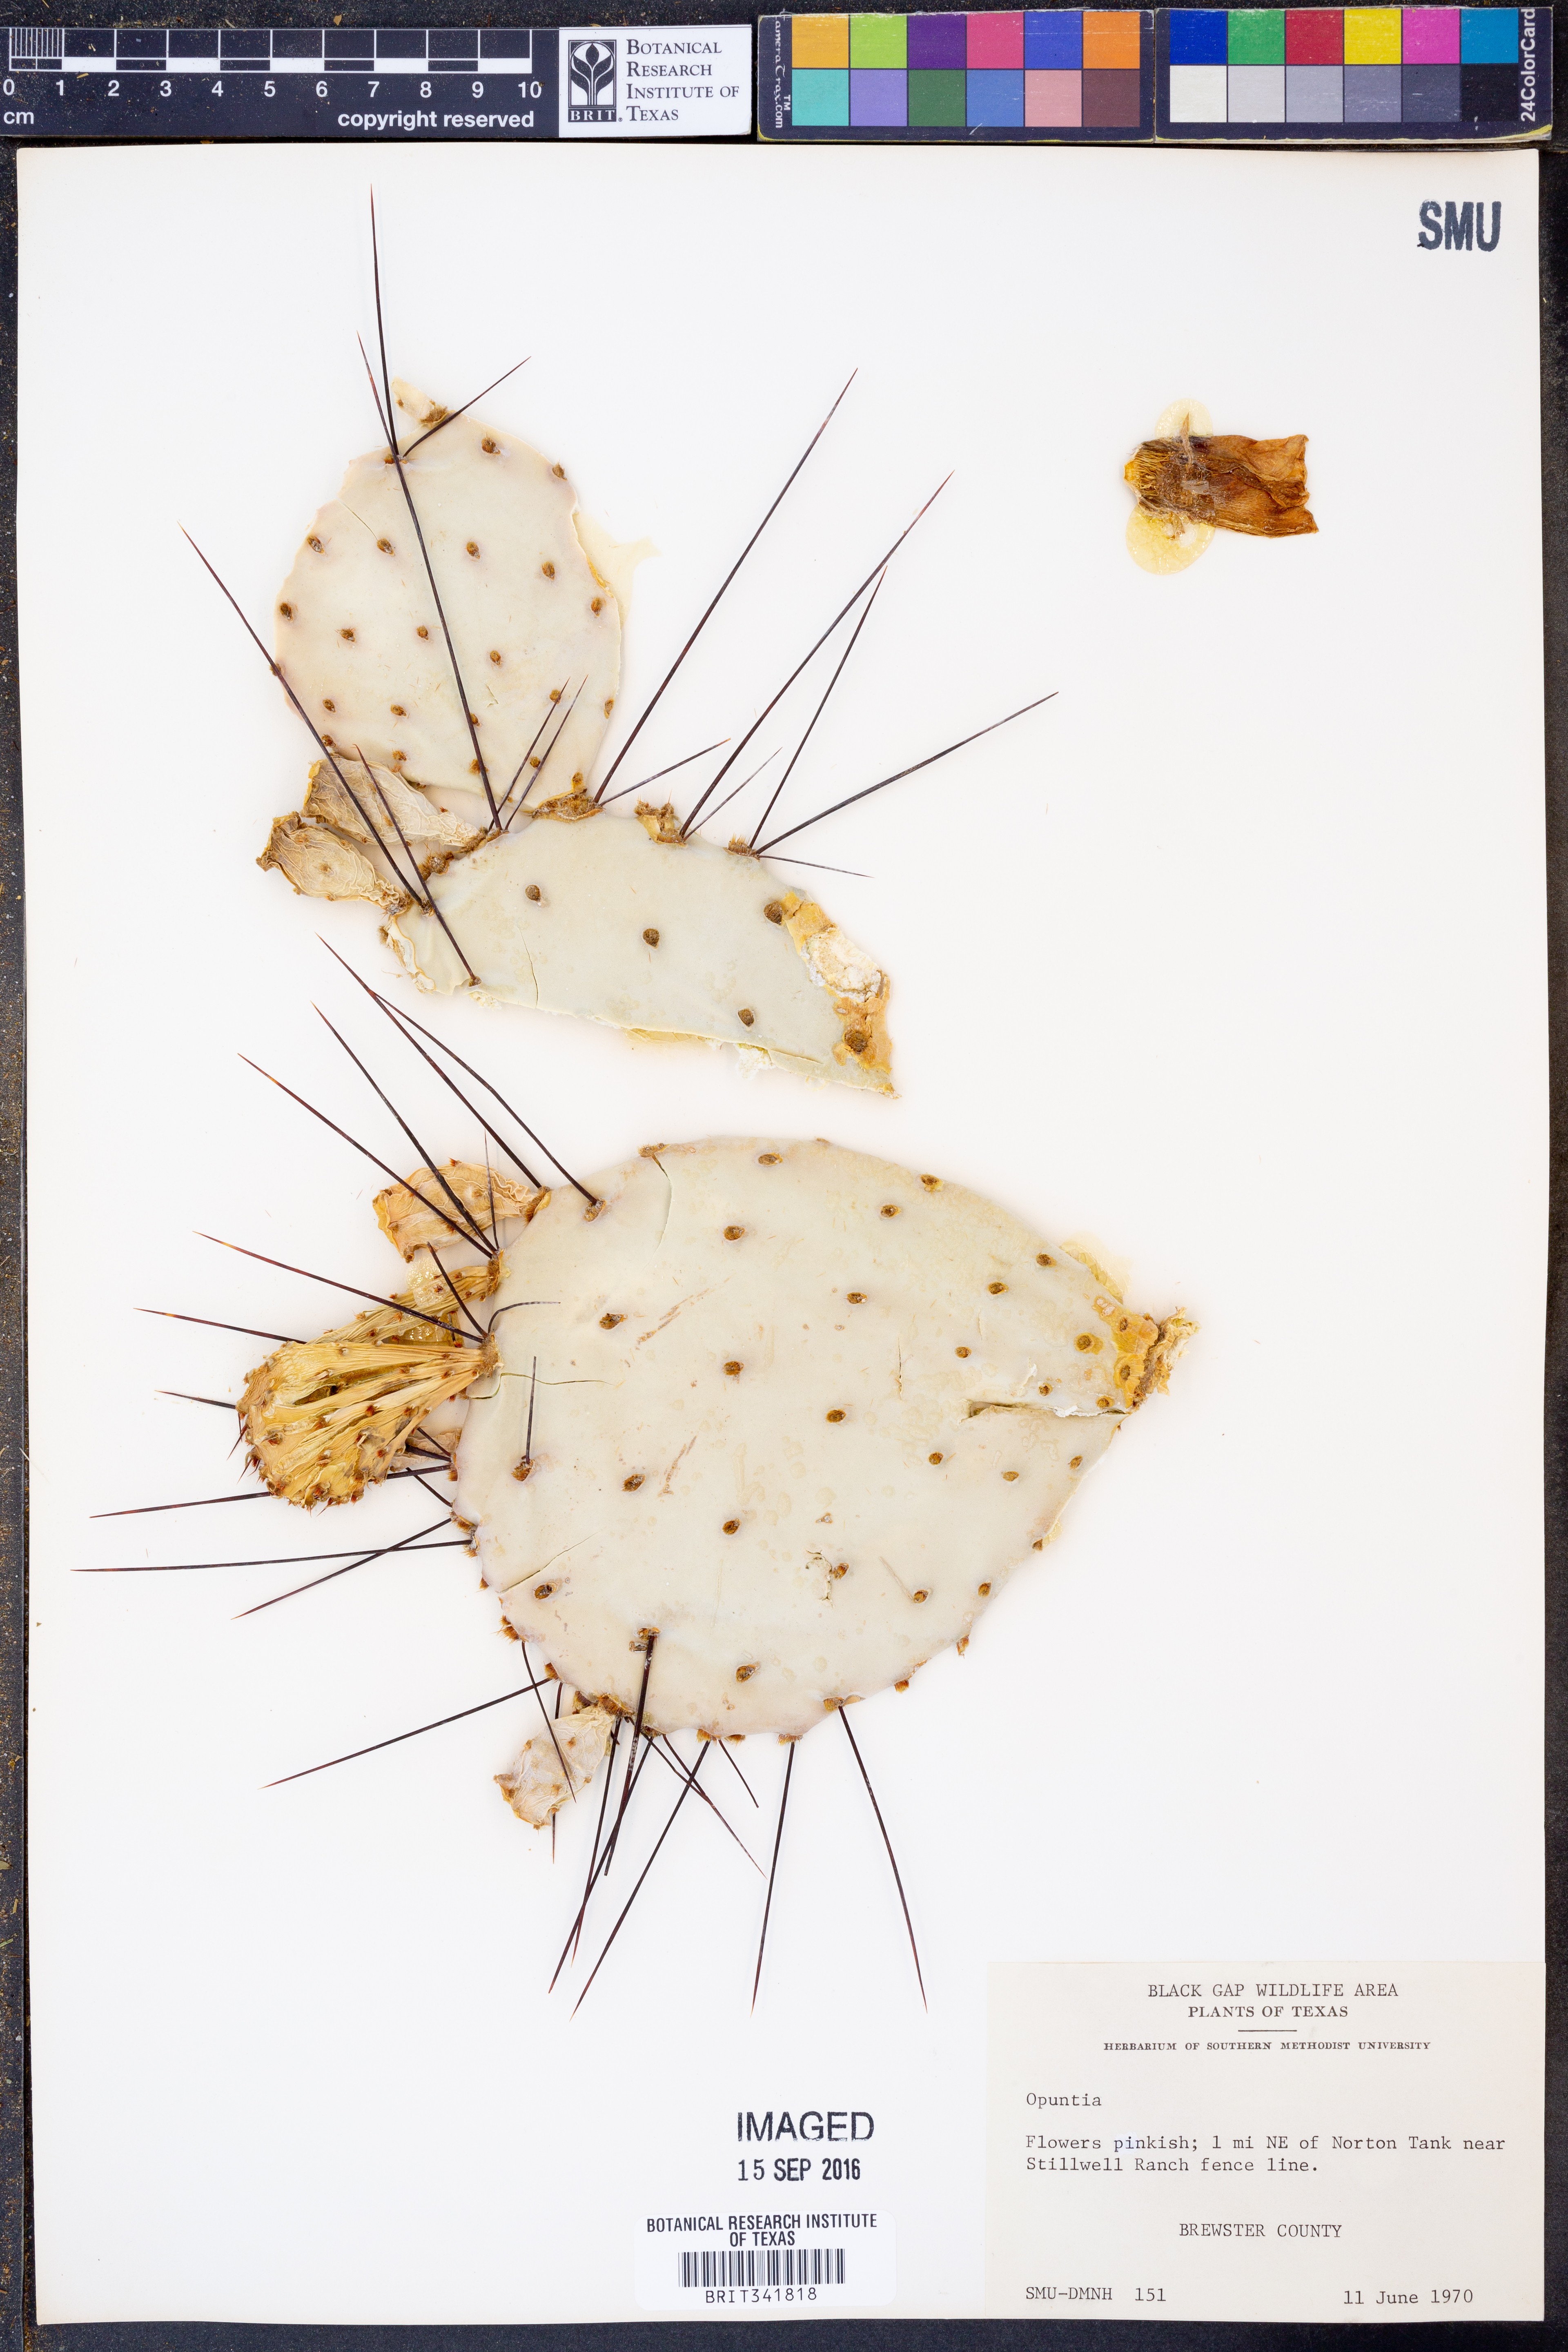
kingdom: Plantae
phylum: Tracheophyta
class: Magnoliopsida
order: Caryophyllales
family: Cactaceae
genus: Opuntia
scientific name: Opuntia
